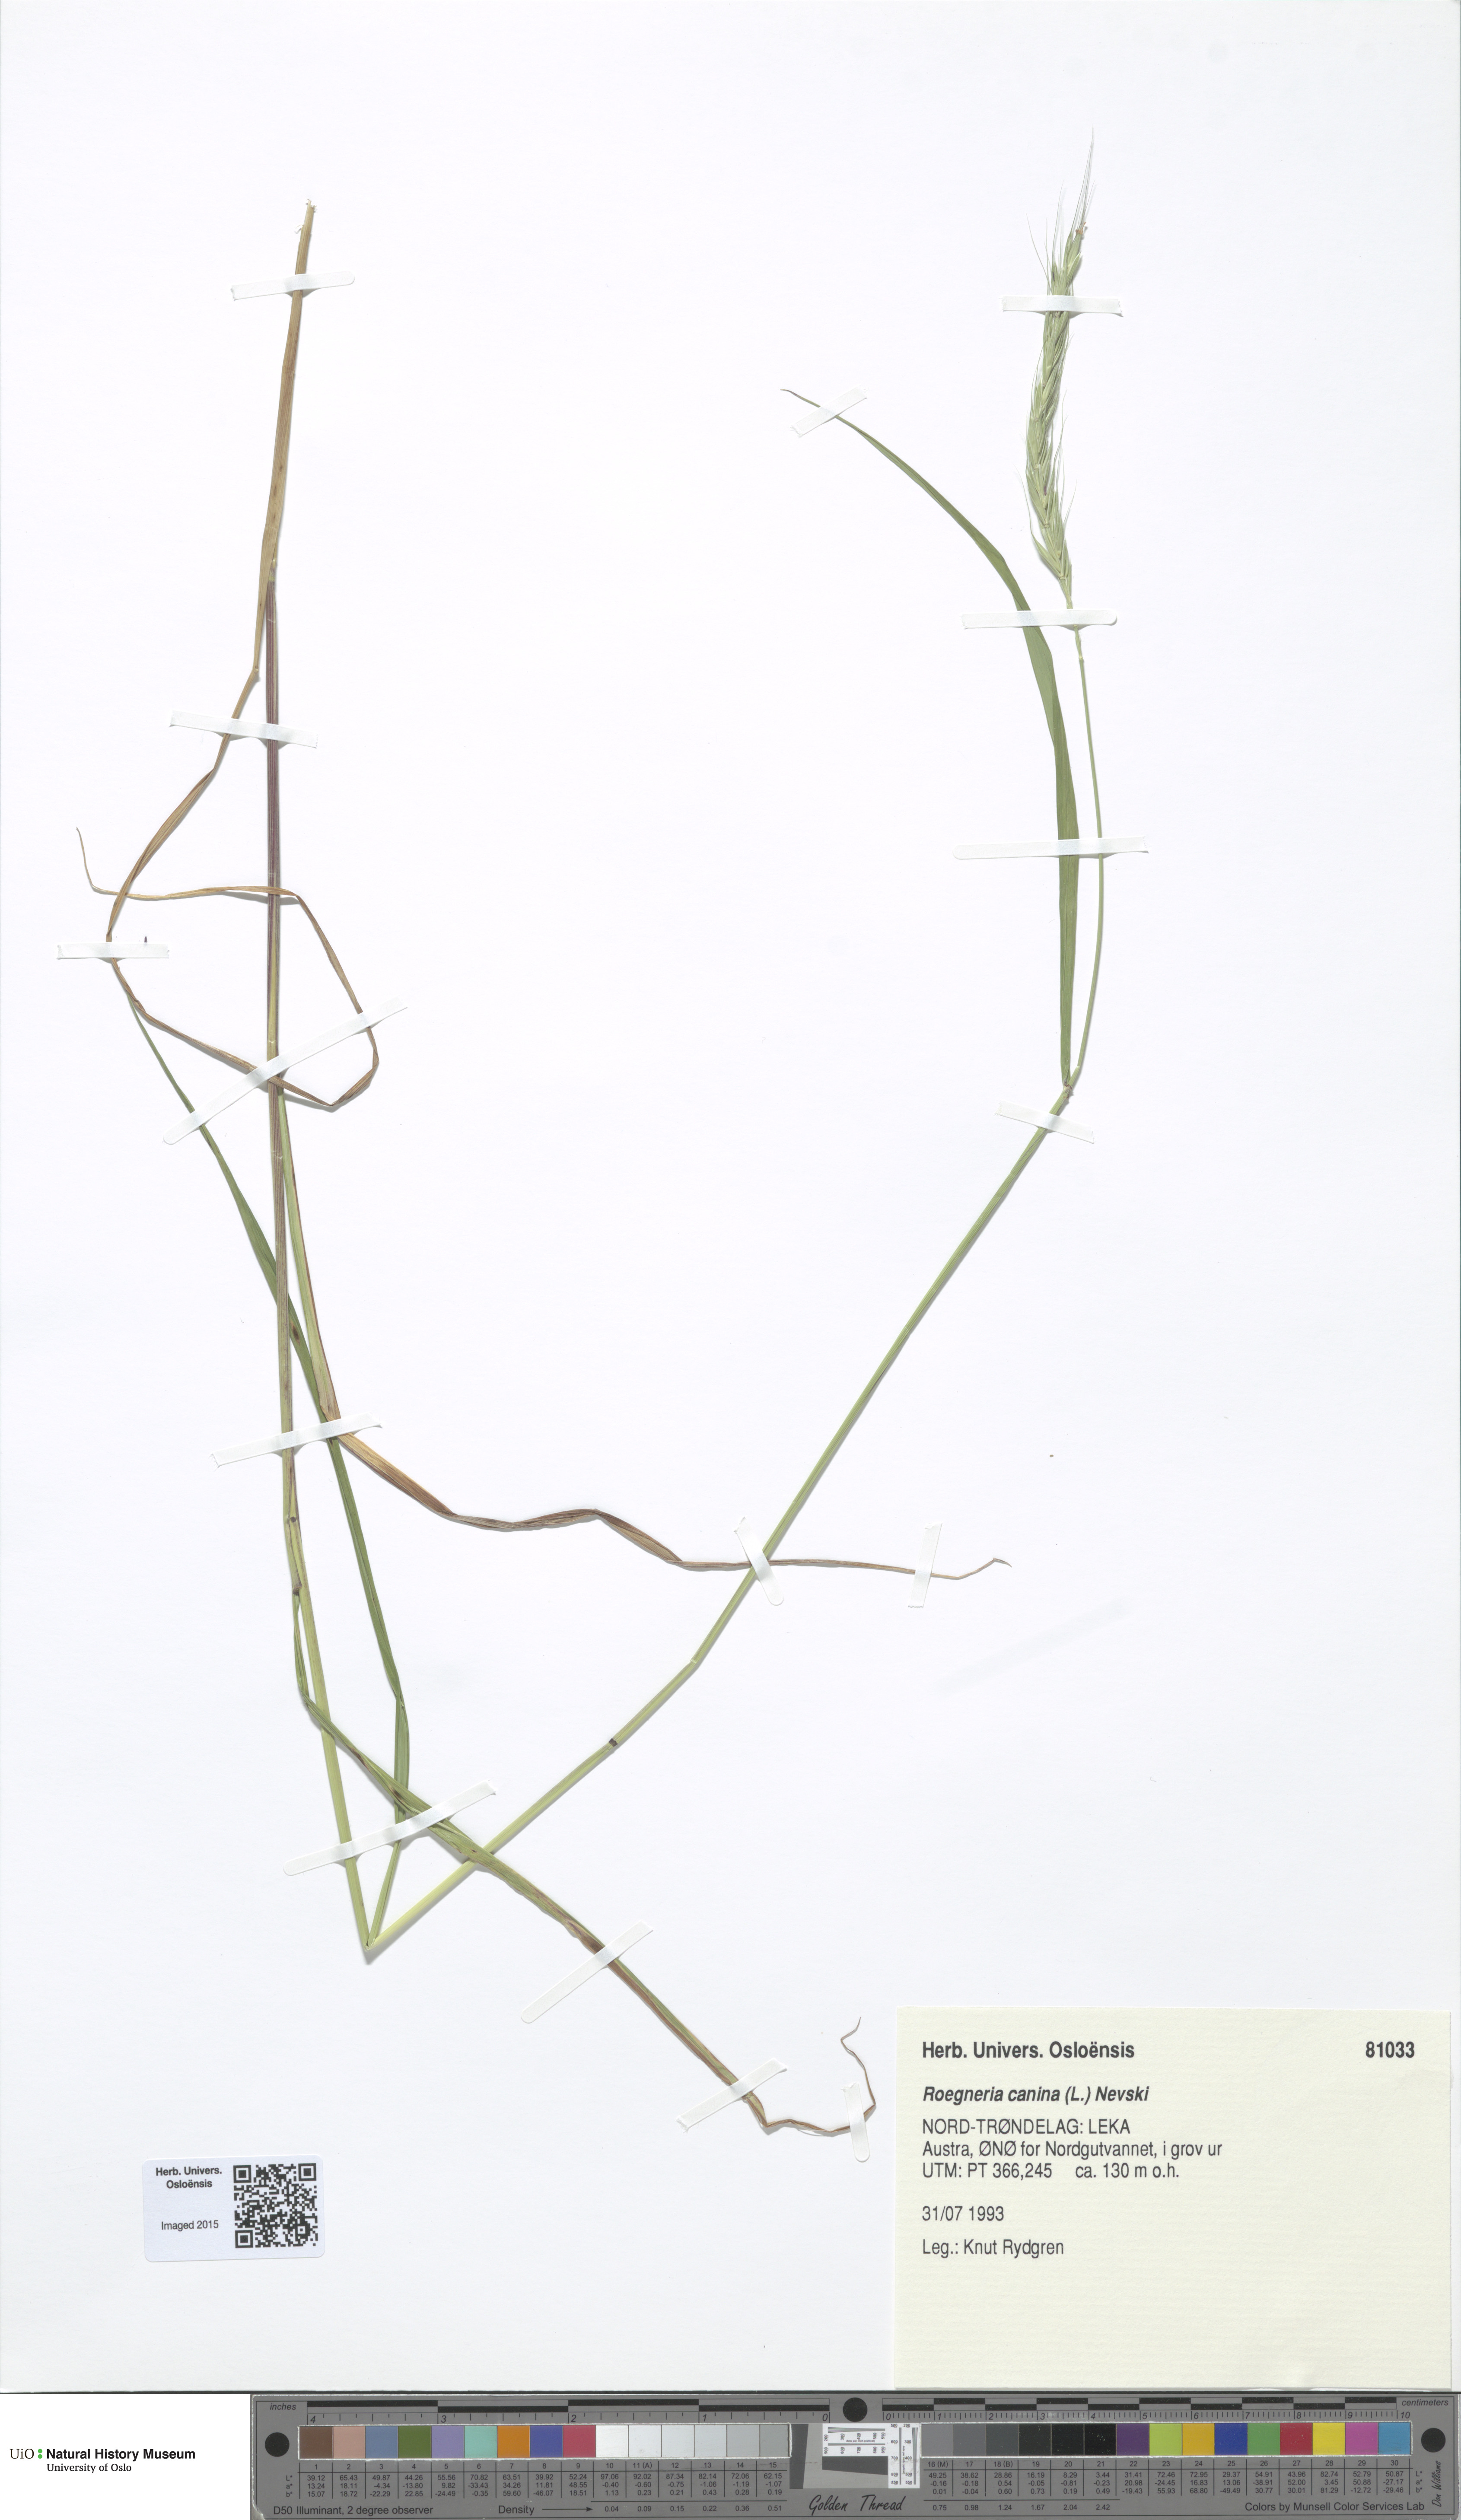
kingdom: Plantae
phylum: Tracheophyta
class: Liliopsida
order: Poales
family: Poaceae
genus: Elymus
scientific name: Elymus caninus
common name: Bearded couch
